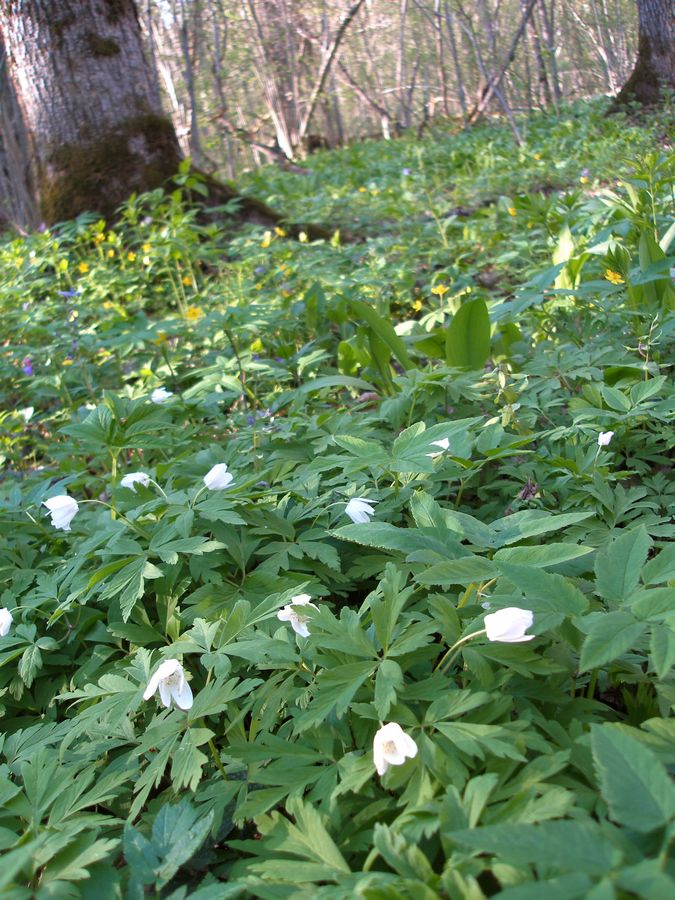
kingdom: Plantae
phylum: Tracheophyta
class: Magnoliopsida
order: Ranunculales
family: Ranunculaceae
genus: Anemone
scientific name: Anemone nemorosa
